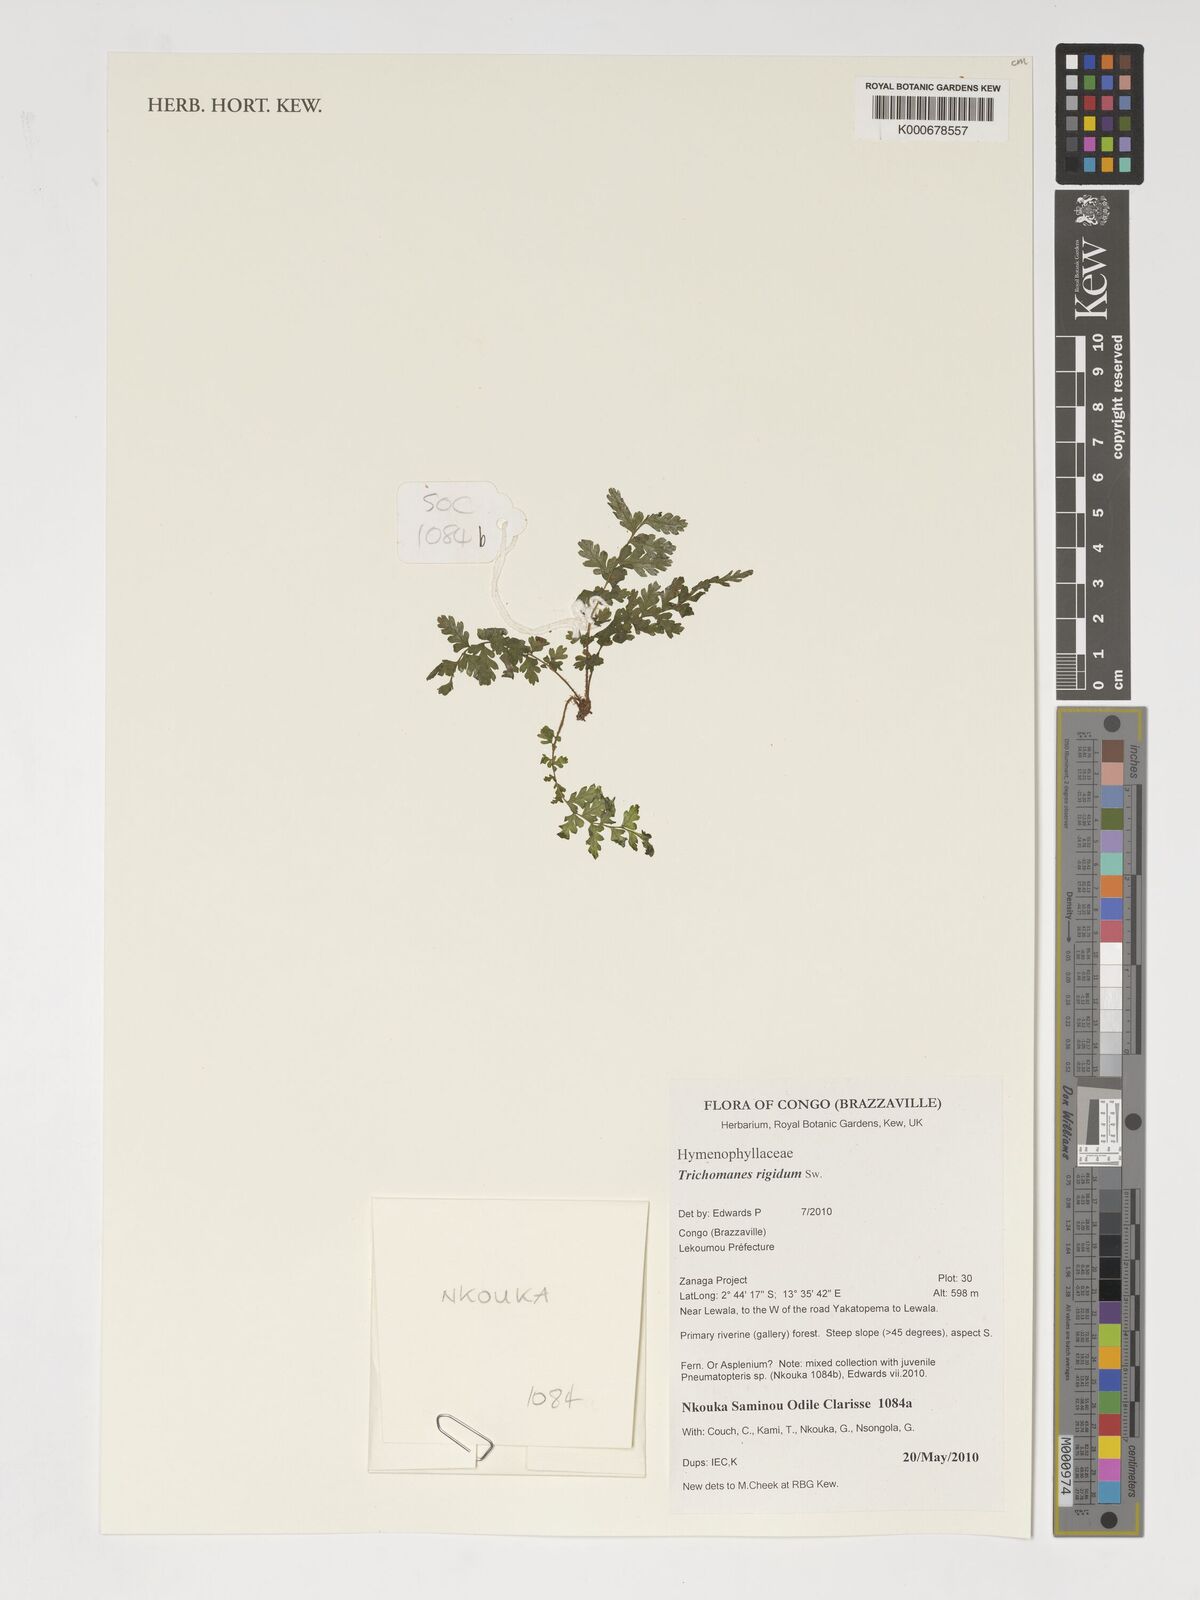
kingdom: Plantae
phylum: Tracheophyta
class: Polypodiopsida
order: Hymenophyllales
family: Hymenophyllaceae
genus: Abrodictyum
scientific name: Abrodictyum rigidum
